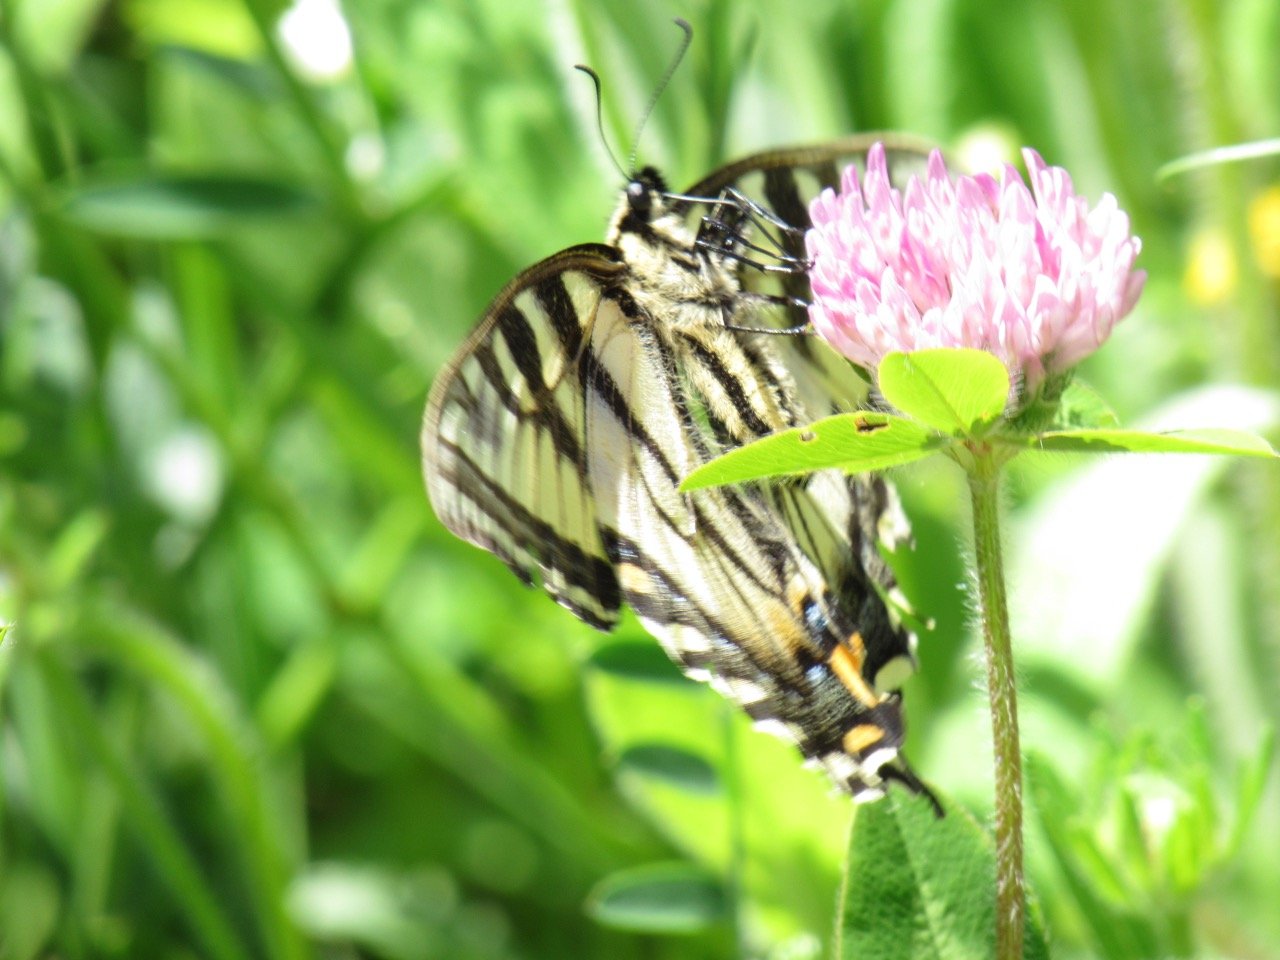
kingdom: Animalia
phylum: Arthropoda
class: Insecta
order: Lepidoptera
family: Papilionidae
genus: Pterourus
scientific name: Pterourus canadensis
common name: Canadian Tiger Swallowtail
